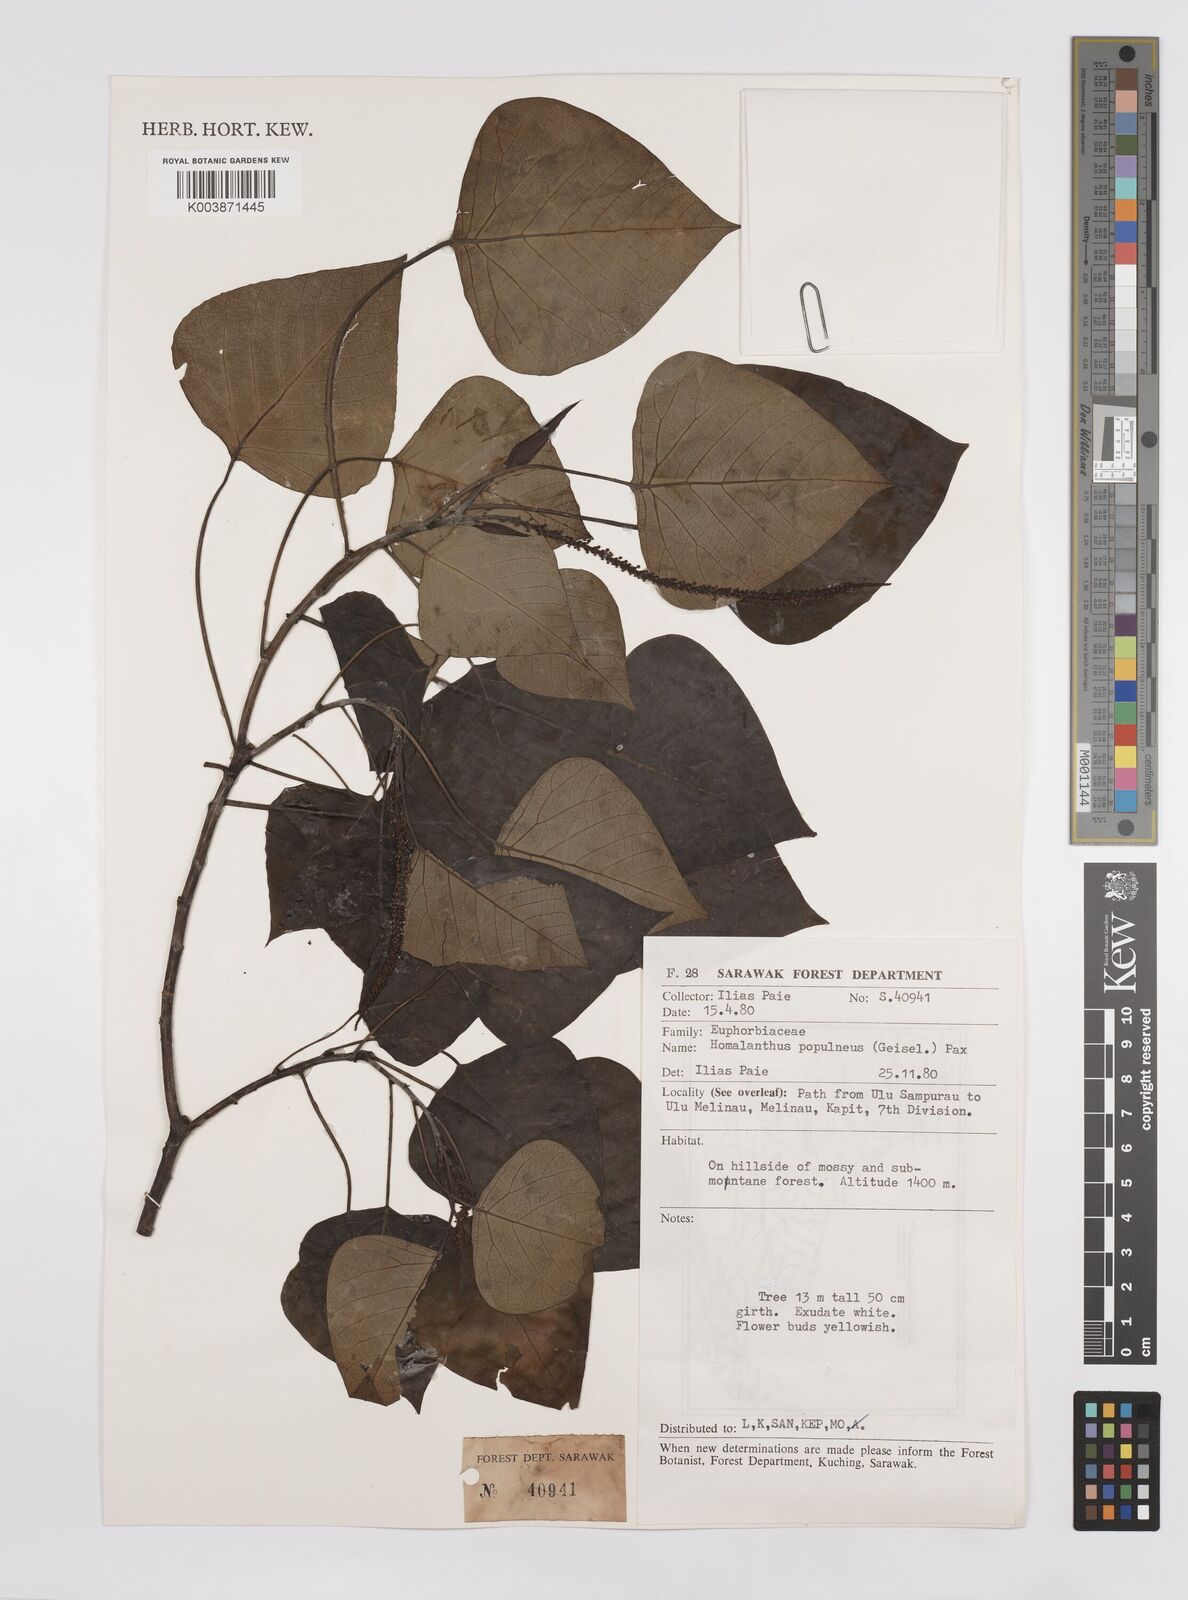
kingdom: Plantae
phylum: Tracheophyta
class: Magnoliopsida
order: Malpighiales
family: Euphorbiaceae
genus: Homalanthus
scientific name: Homalanthus populneus
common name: Spurge
